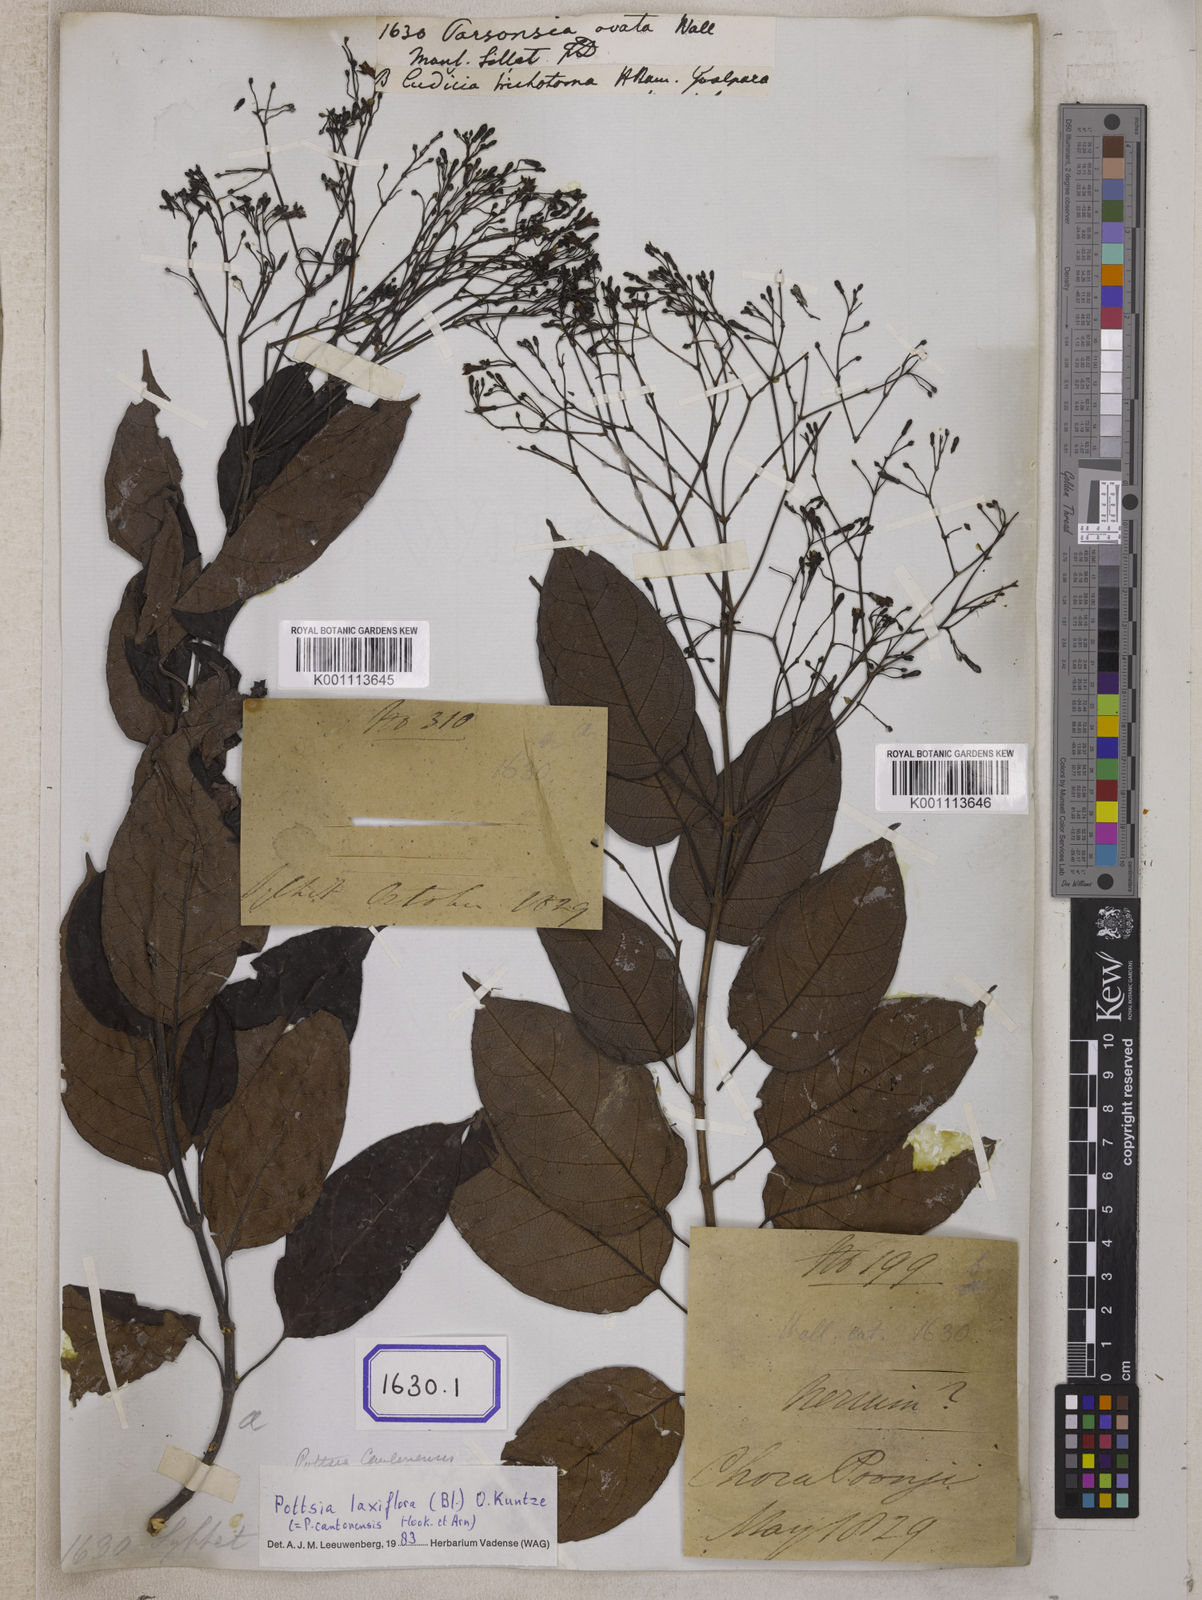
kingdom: Plantae
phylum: Tracheophyta
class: Magnoliopsida
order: Gentianales
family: Apocynaceae
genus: Parsonsia
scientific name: Parsonsia
